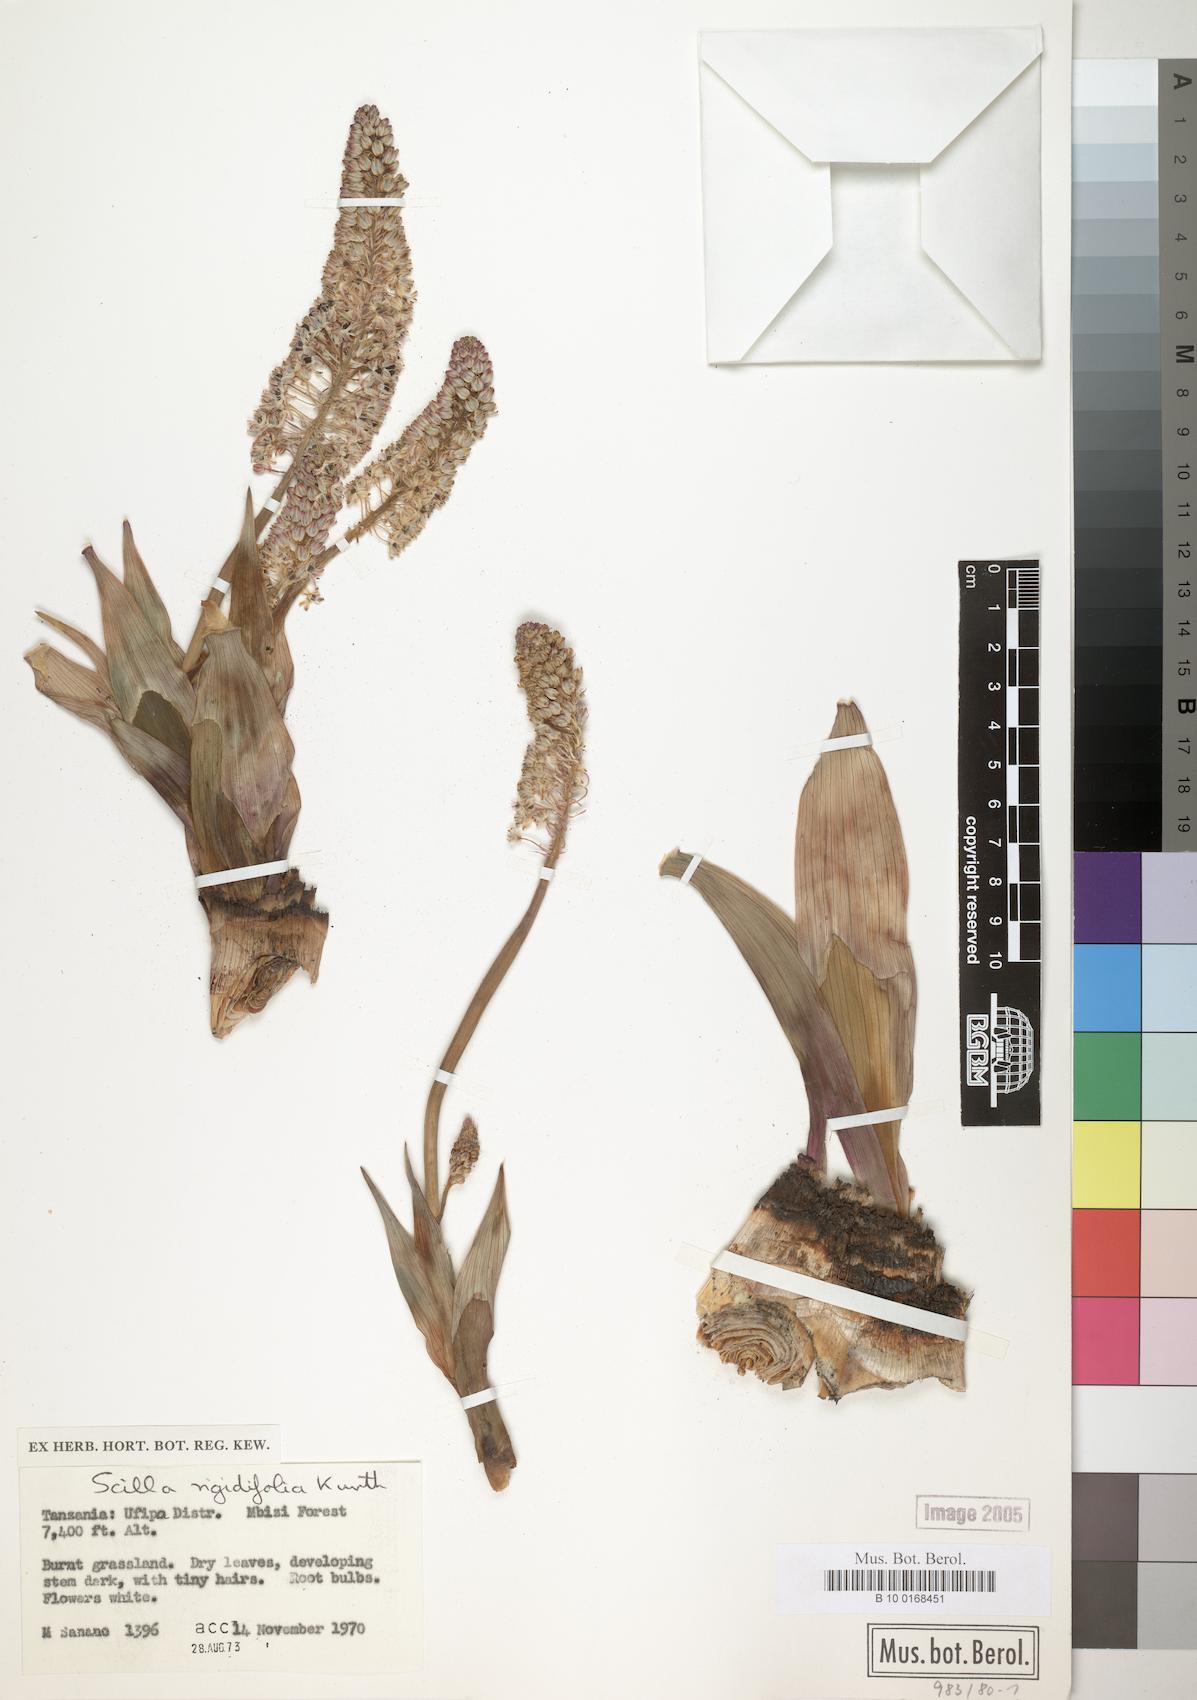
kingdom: Plantae
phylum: Tracheophyta
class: Liliopsida
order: Asparagales
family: Asparagaceae
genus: Schizocarphus
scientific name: Schizocarphus nervosus
